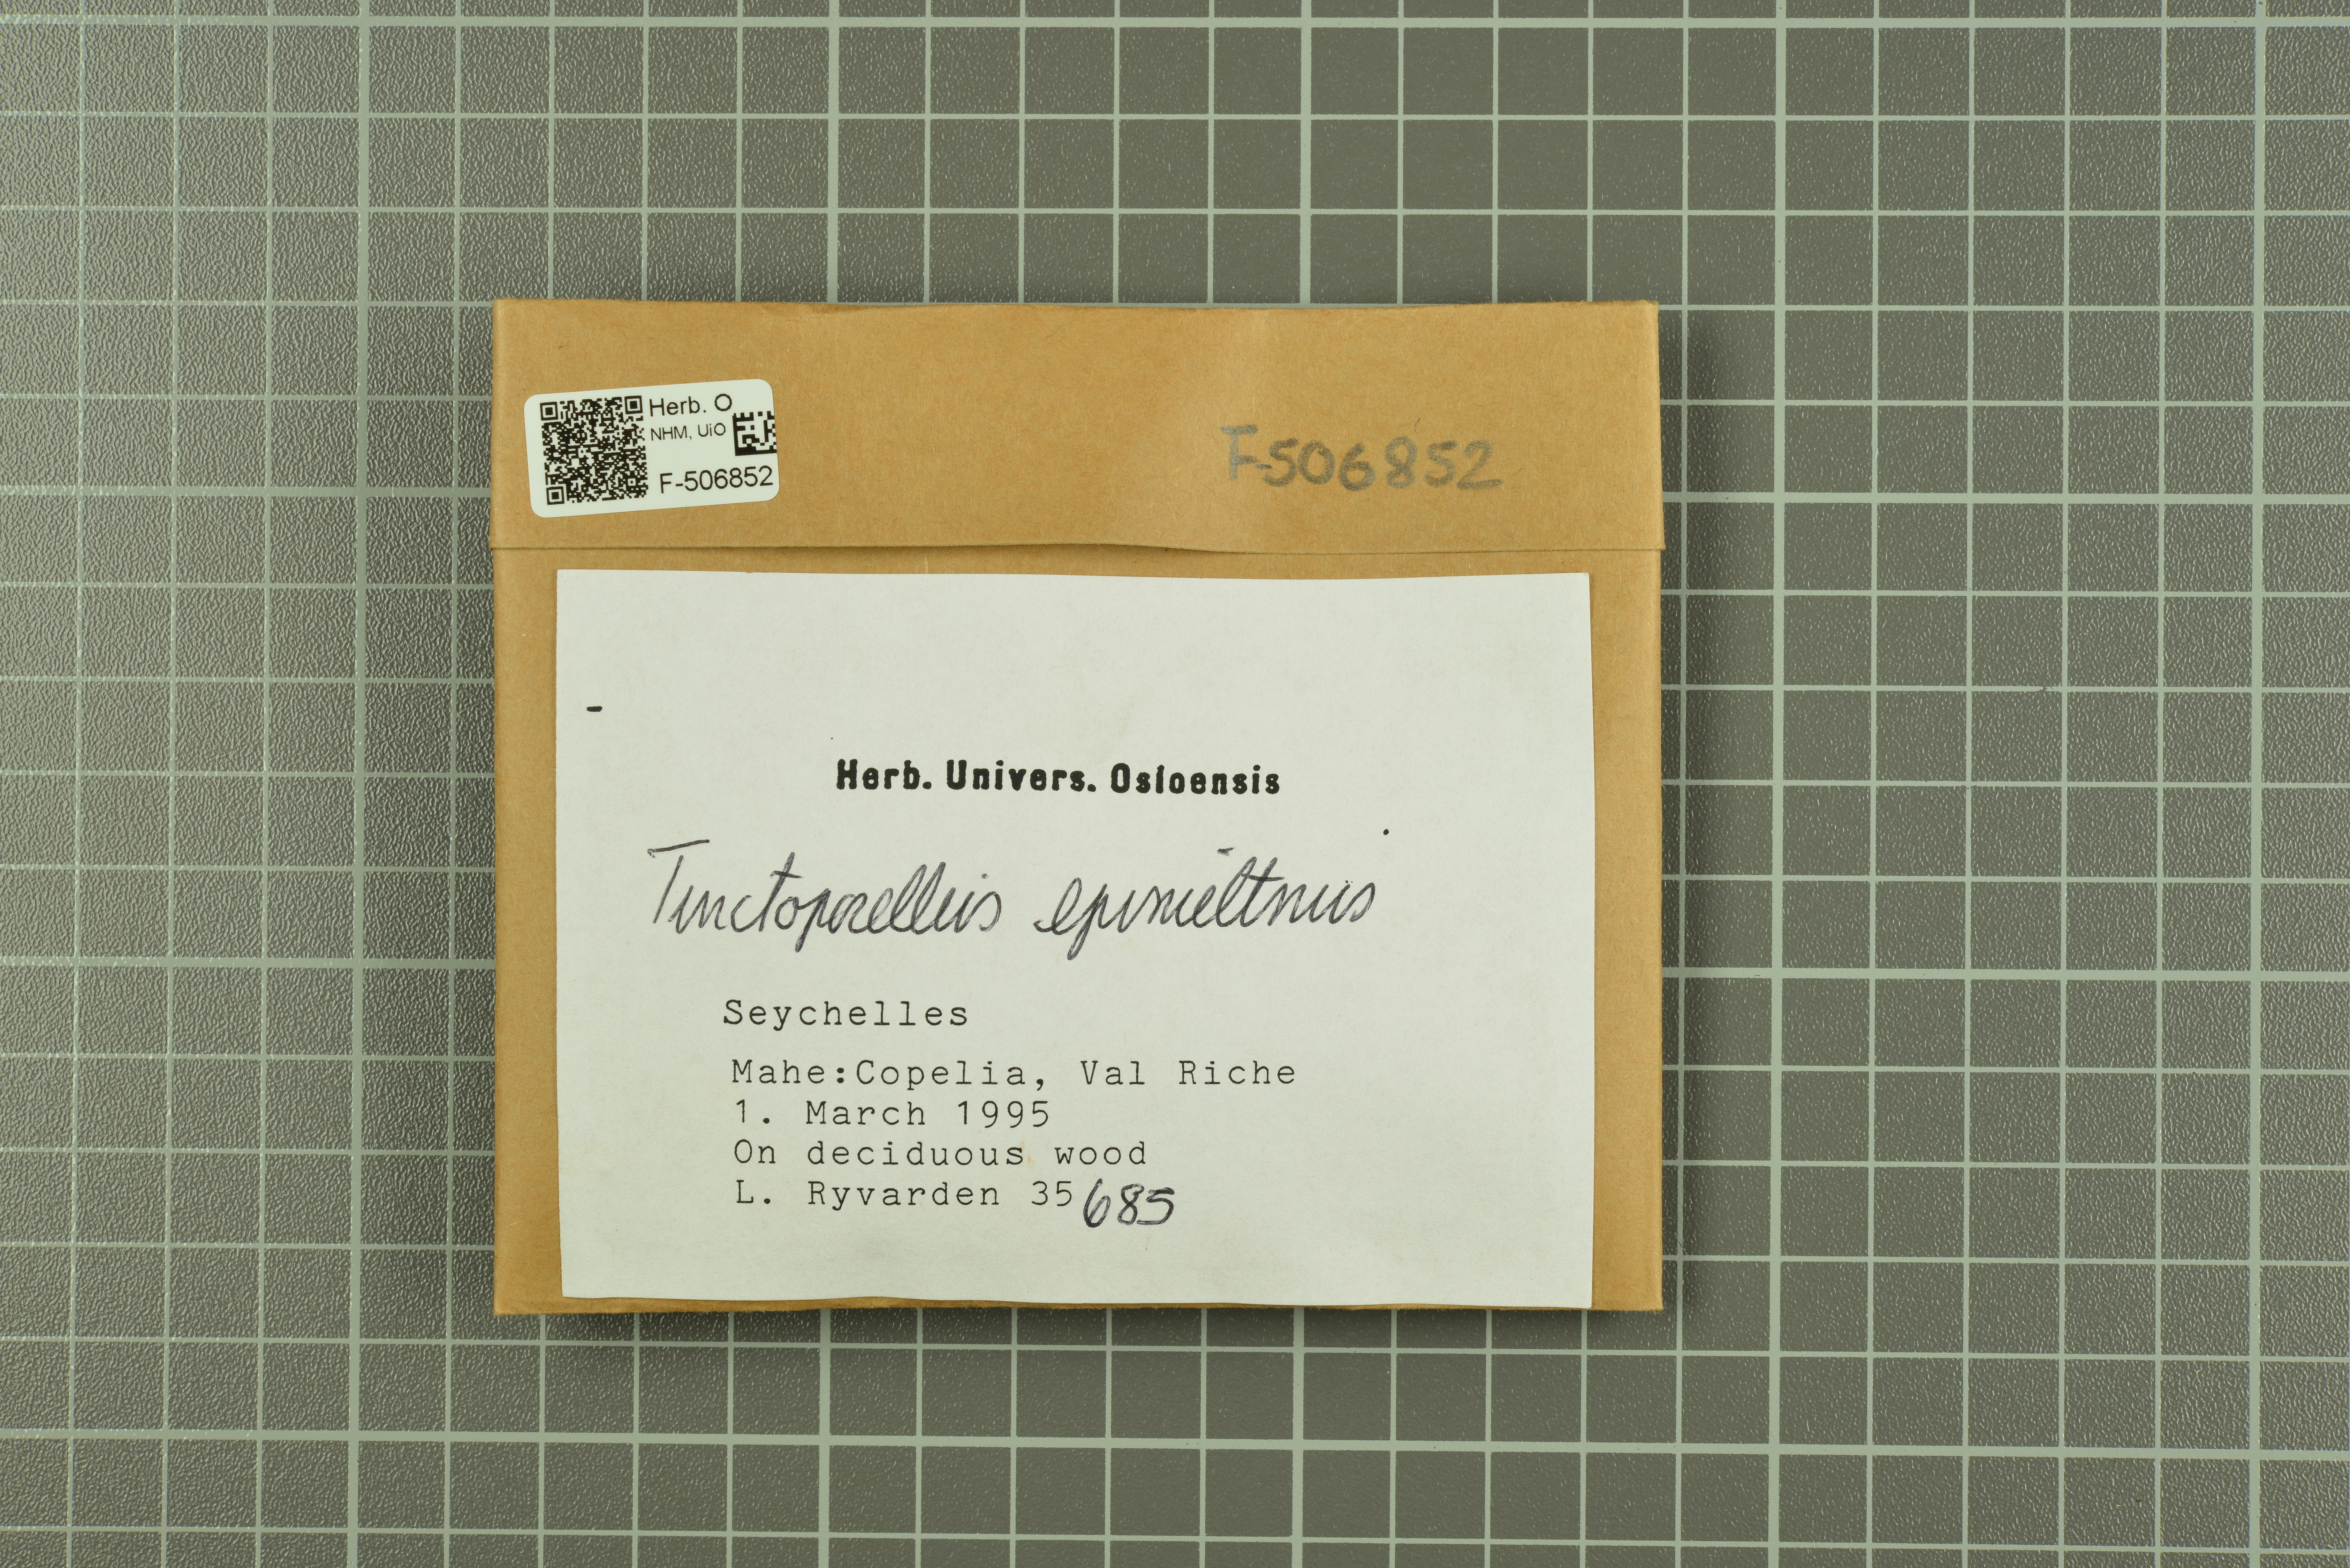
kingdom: Fungi
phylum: Basidiomycota
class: Agaricomycetes
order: Polyporales
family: Polyporaceae
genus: Tinctoporellus
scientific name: Tinctoporellus epimiltinus
